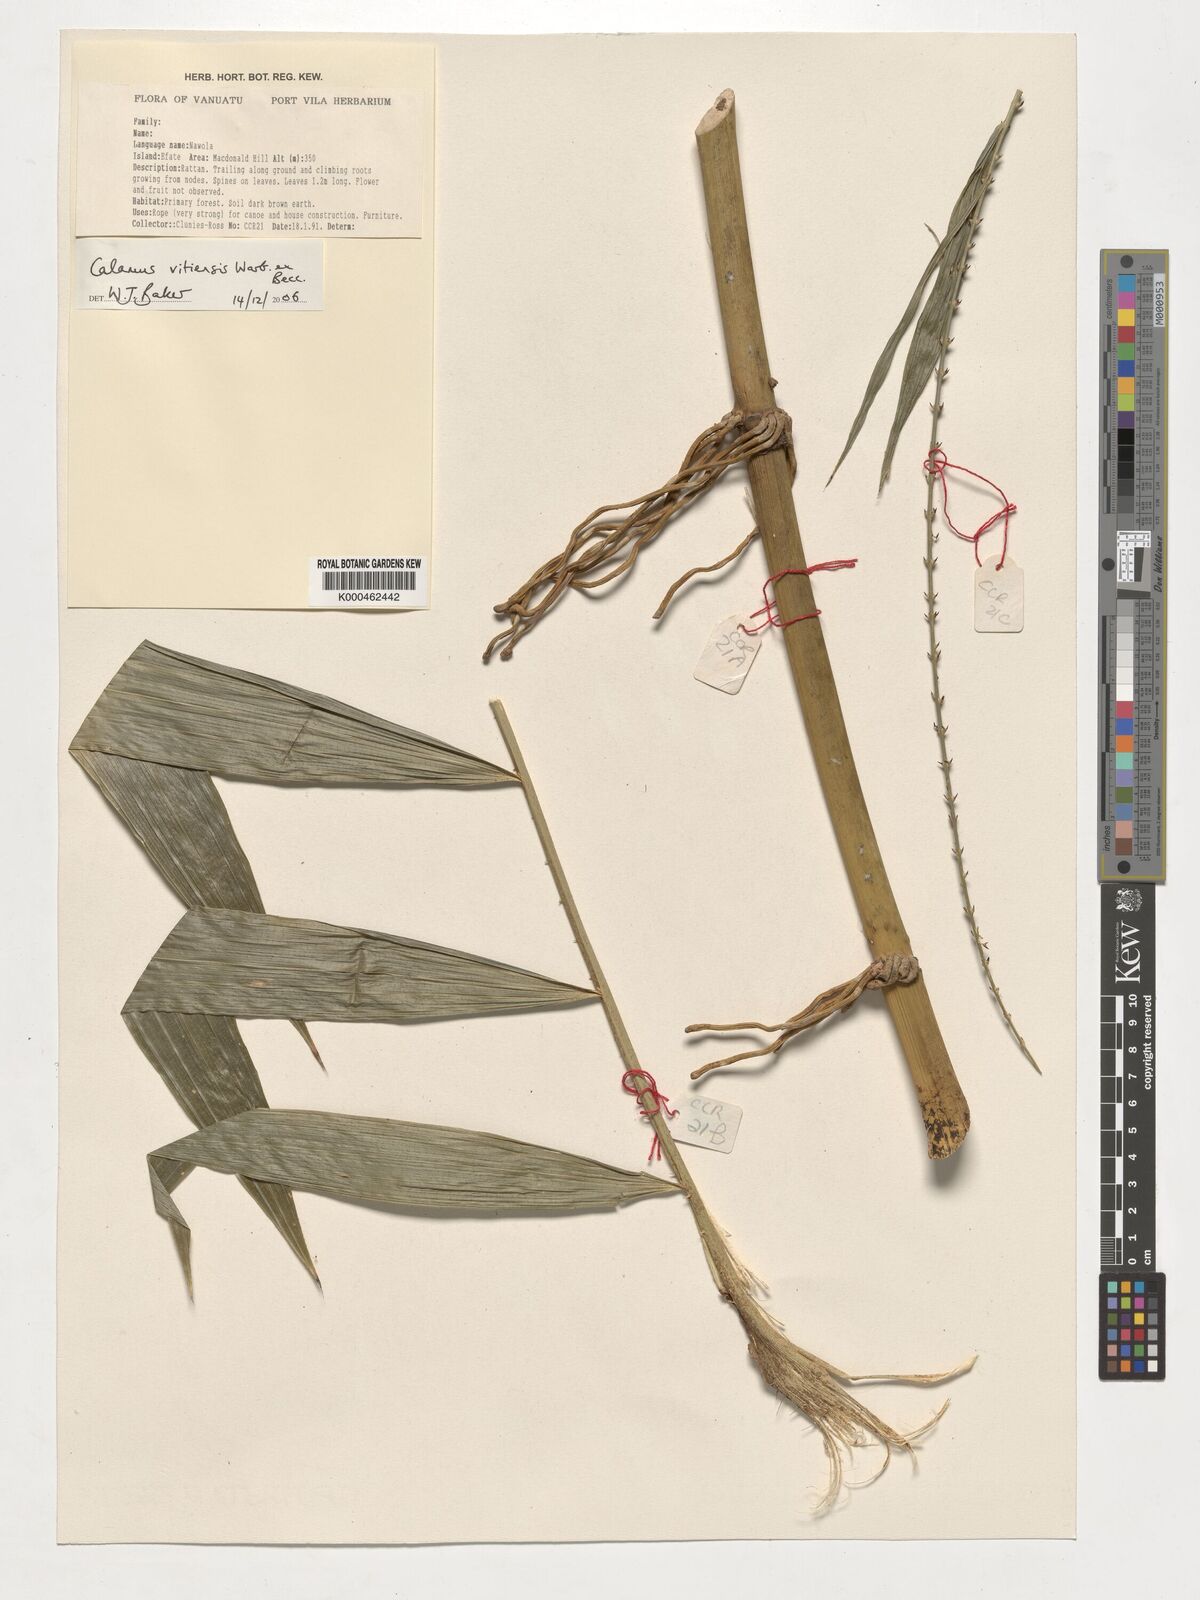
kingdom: Plantae
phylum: Tracheophyta
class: Liliopsida
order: Arecales
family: Arecaceae
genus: Calamus
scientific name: Calamus vitiensis
